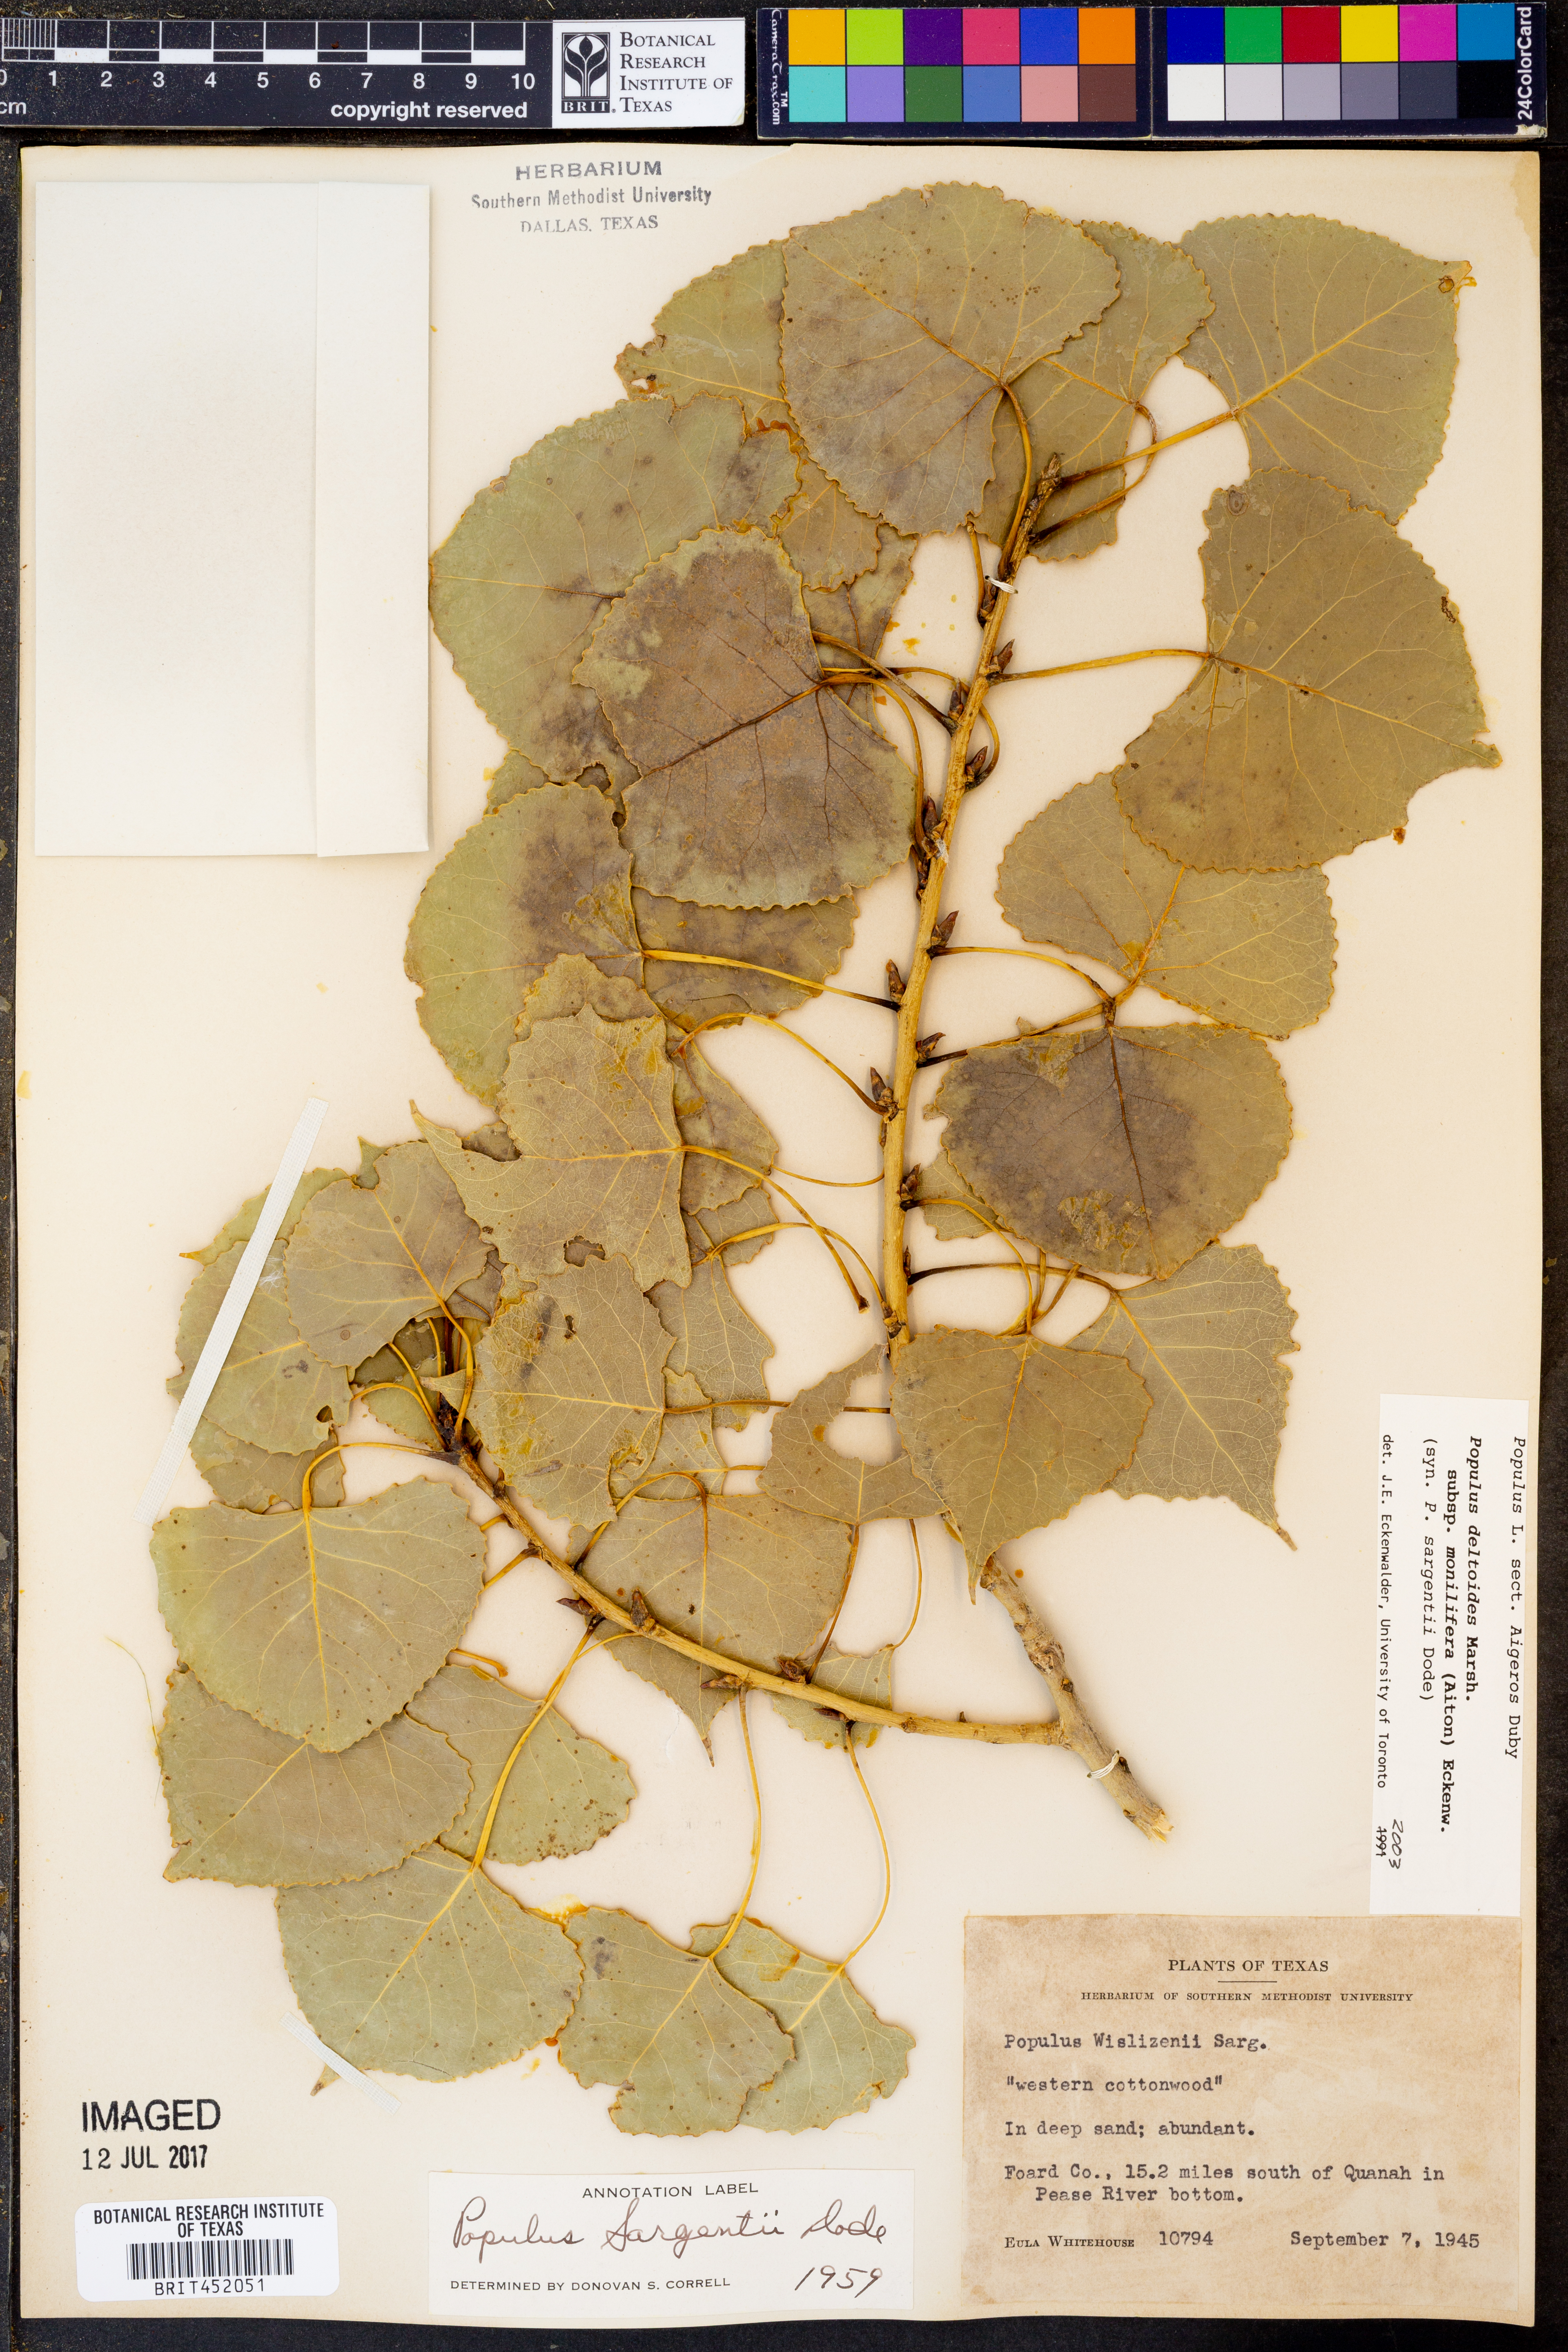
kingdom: Plantae
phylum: Tracheophyta
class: Magnoliopsida
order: Malpighiales
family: Salicaceae
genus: Populus
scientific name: Populus deltoides
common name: Eastern cottonwood
